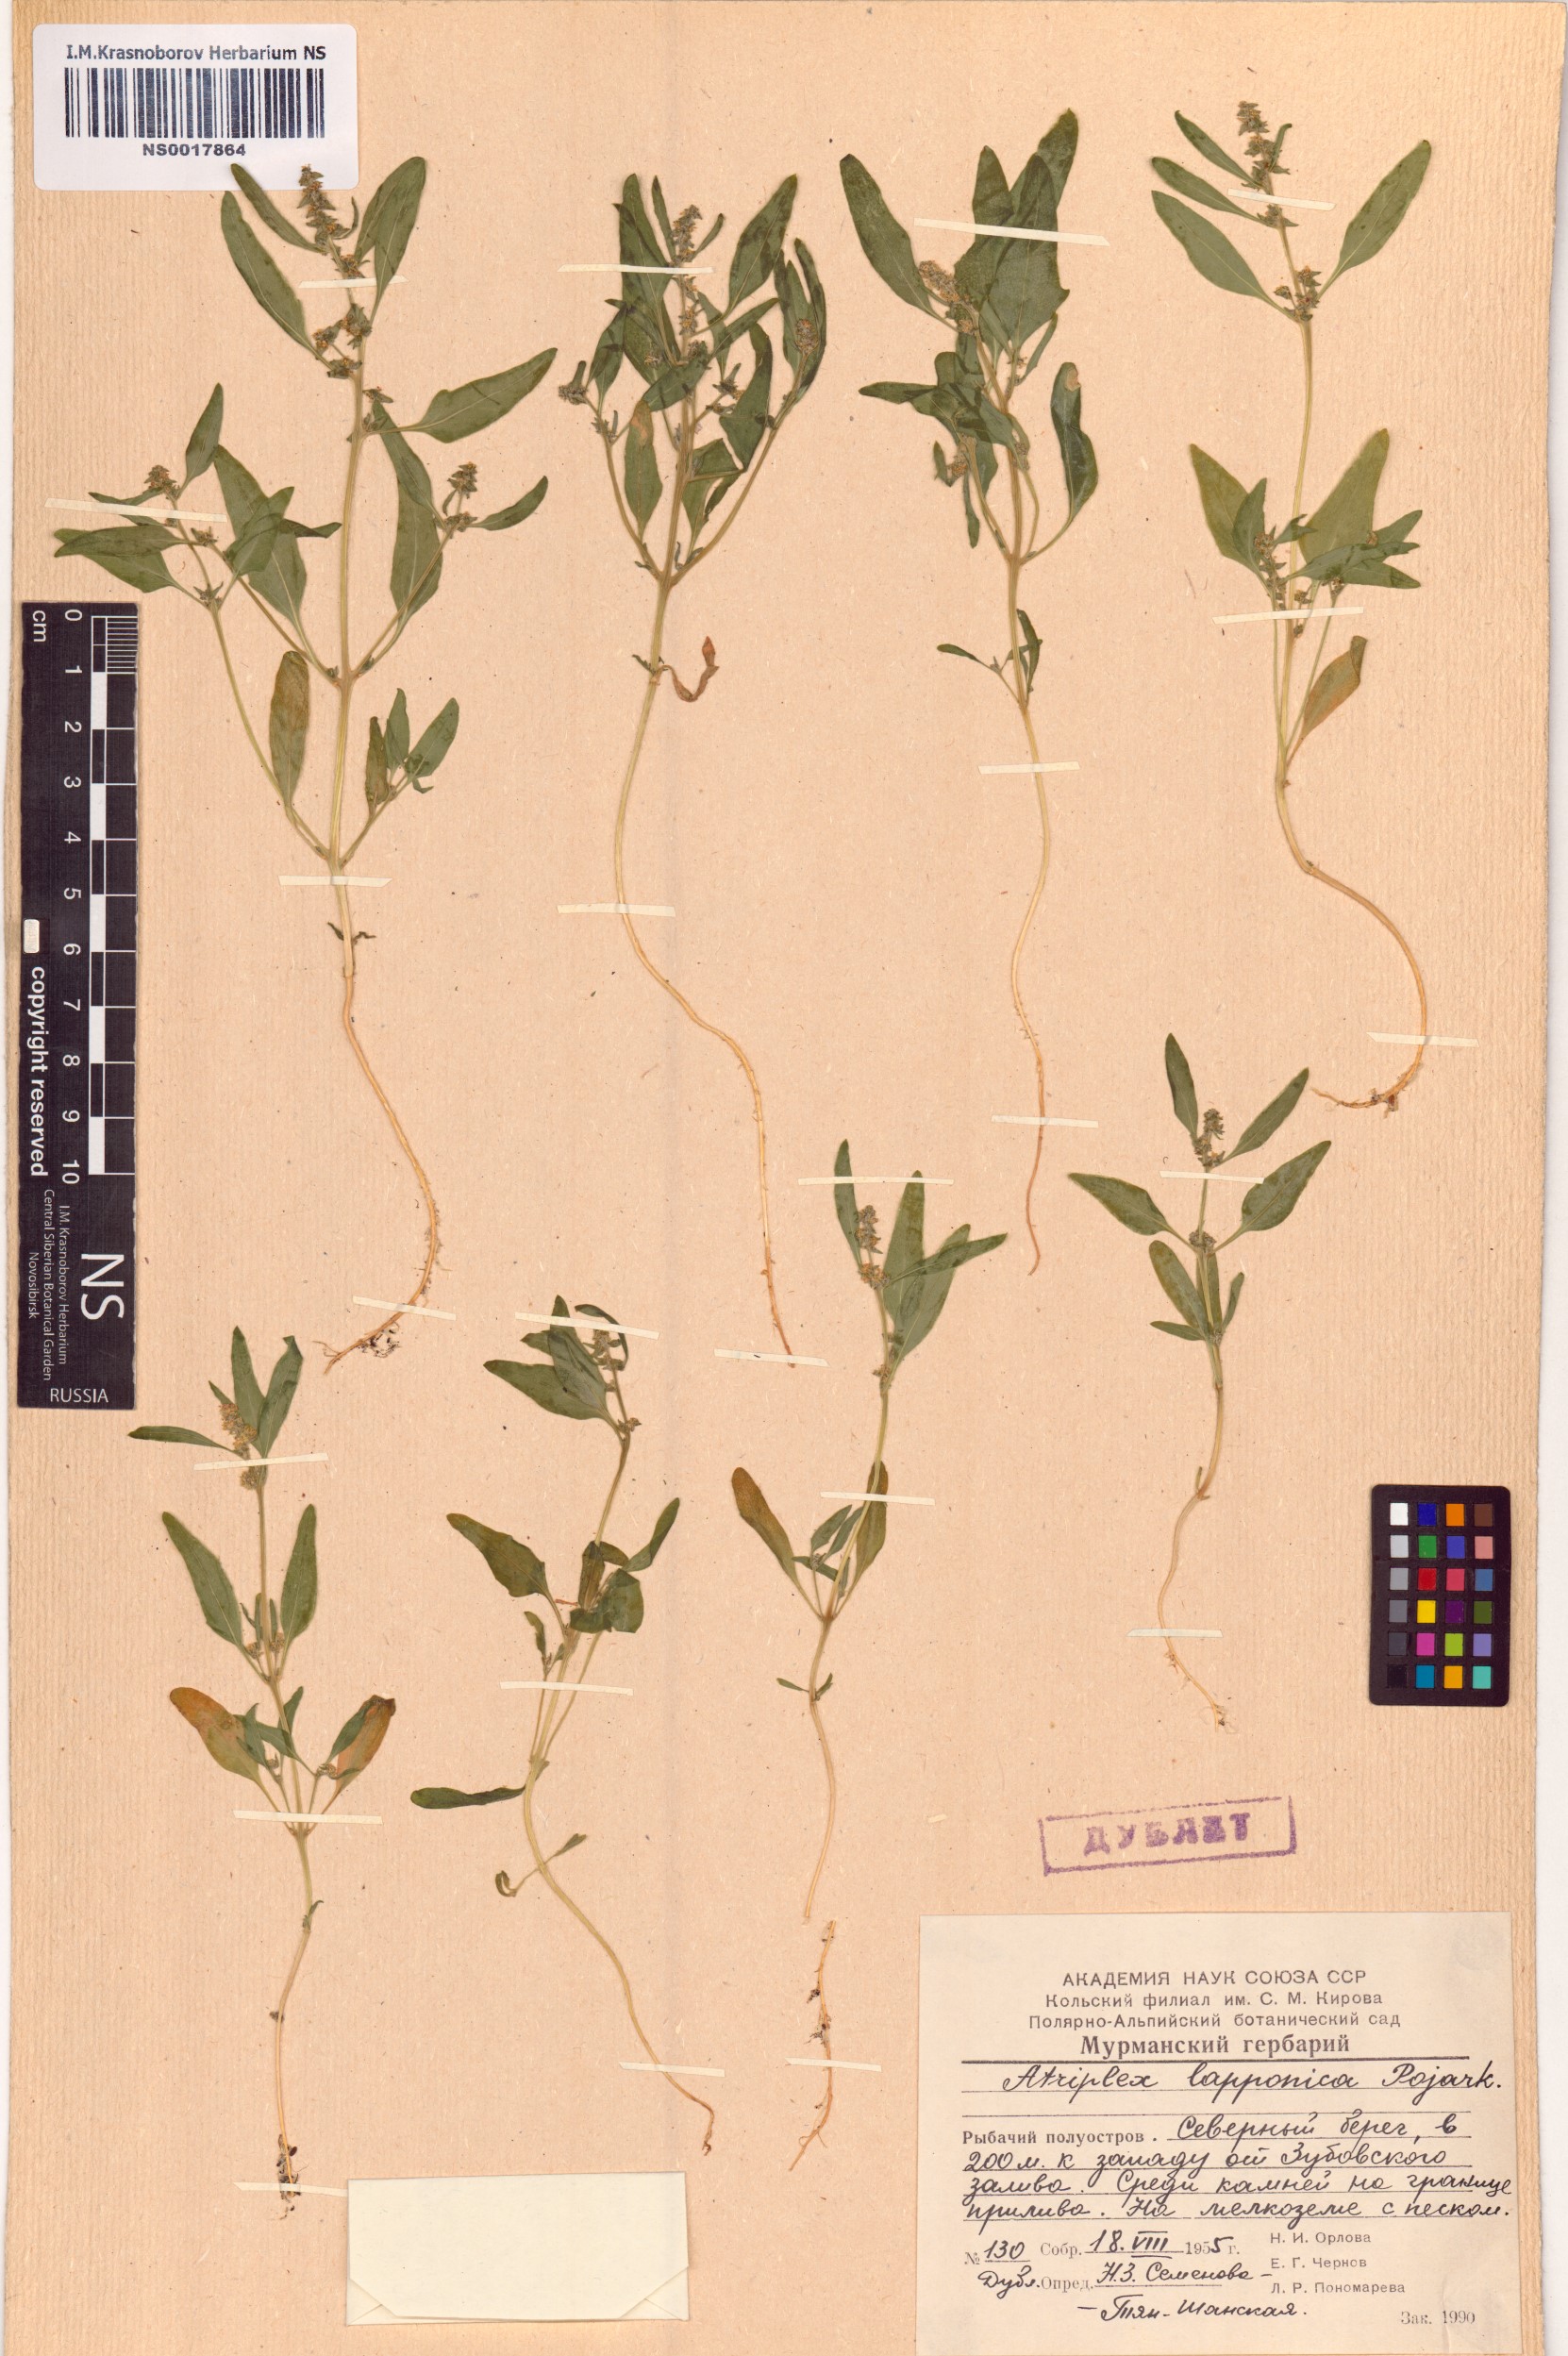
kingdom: Plantae
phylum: Tracheophyta
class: Magnoliopsida
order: Caryophyllales
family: Amaranthaceae
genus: Atriplex
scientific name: Atriplex nudicaulis
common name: Baltic orache
